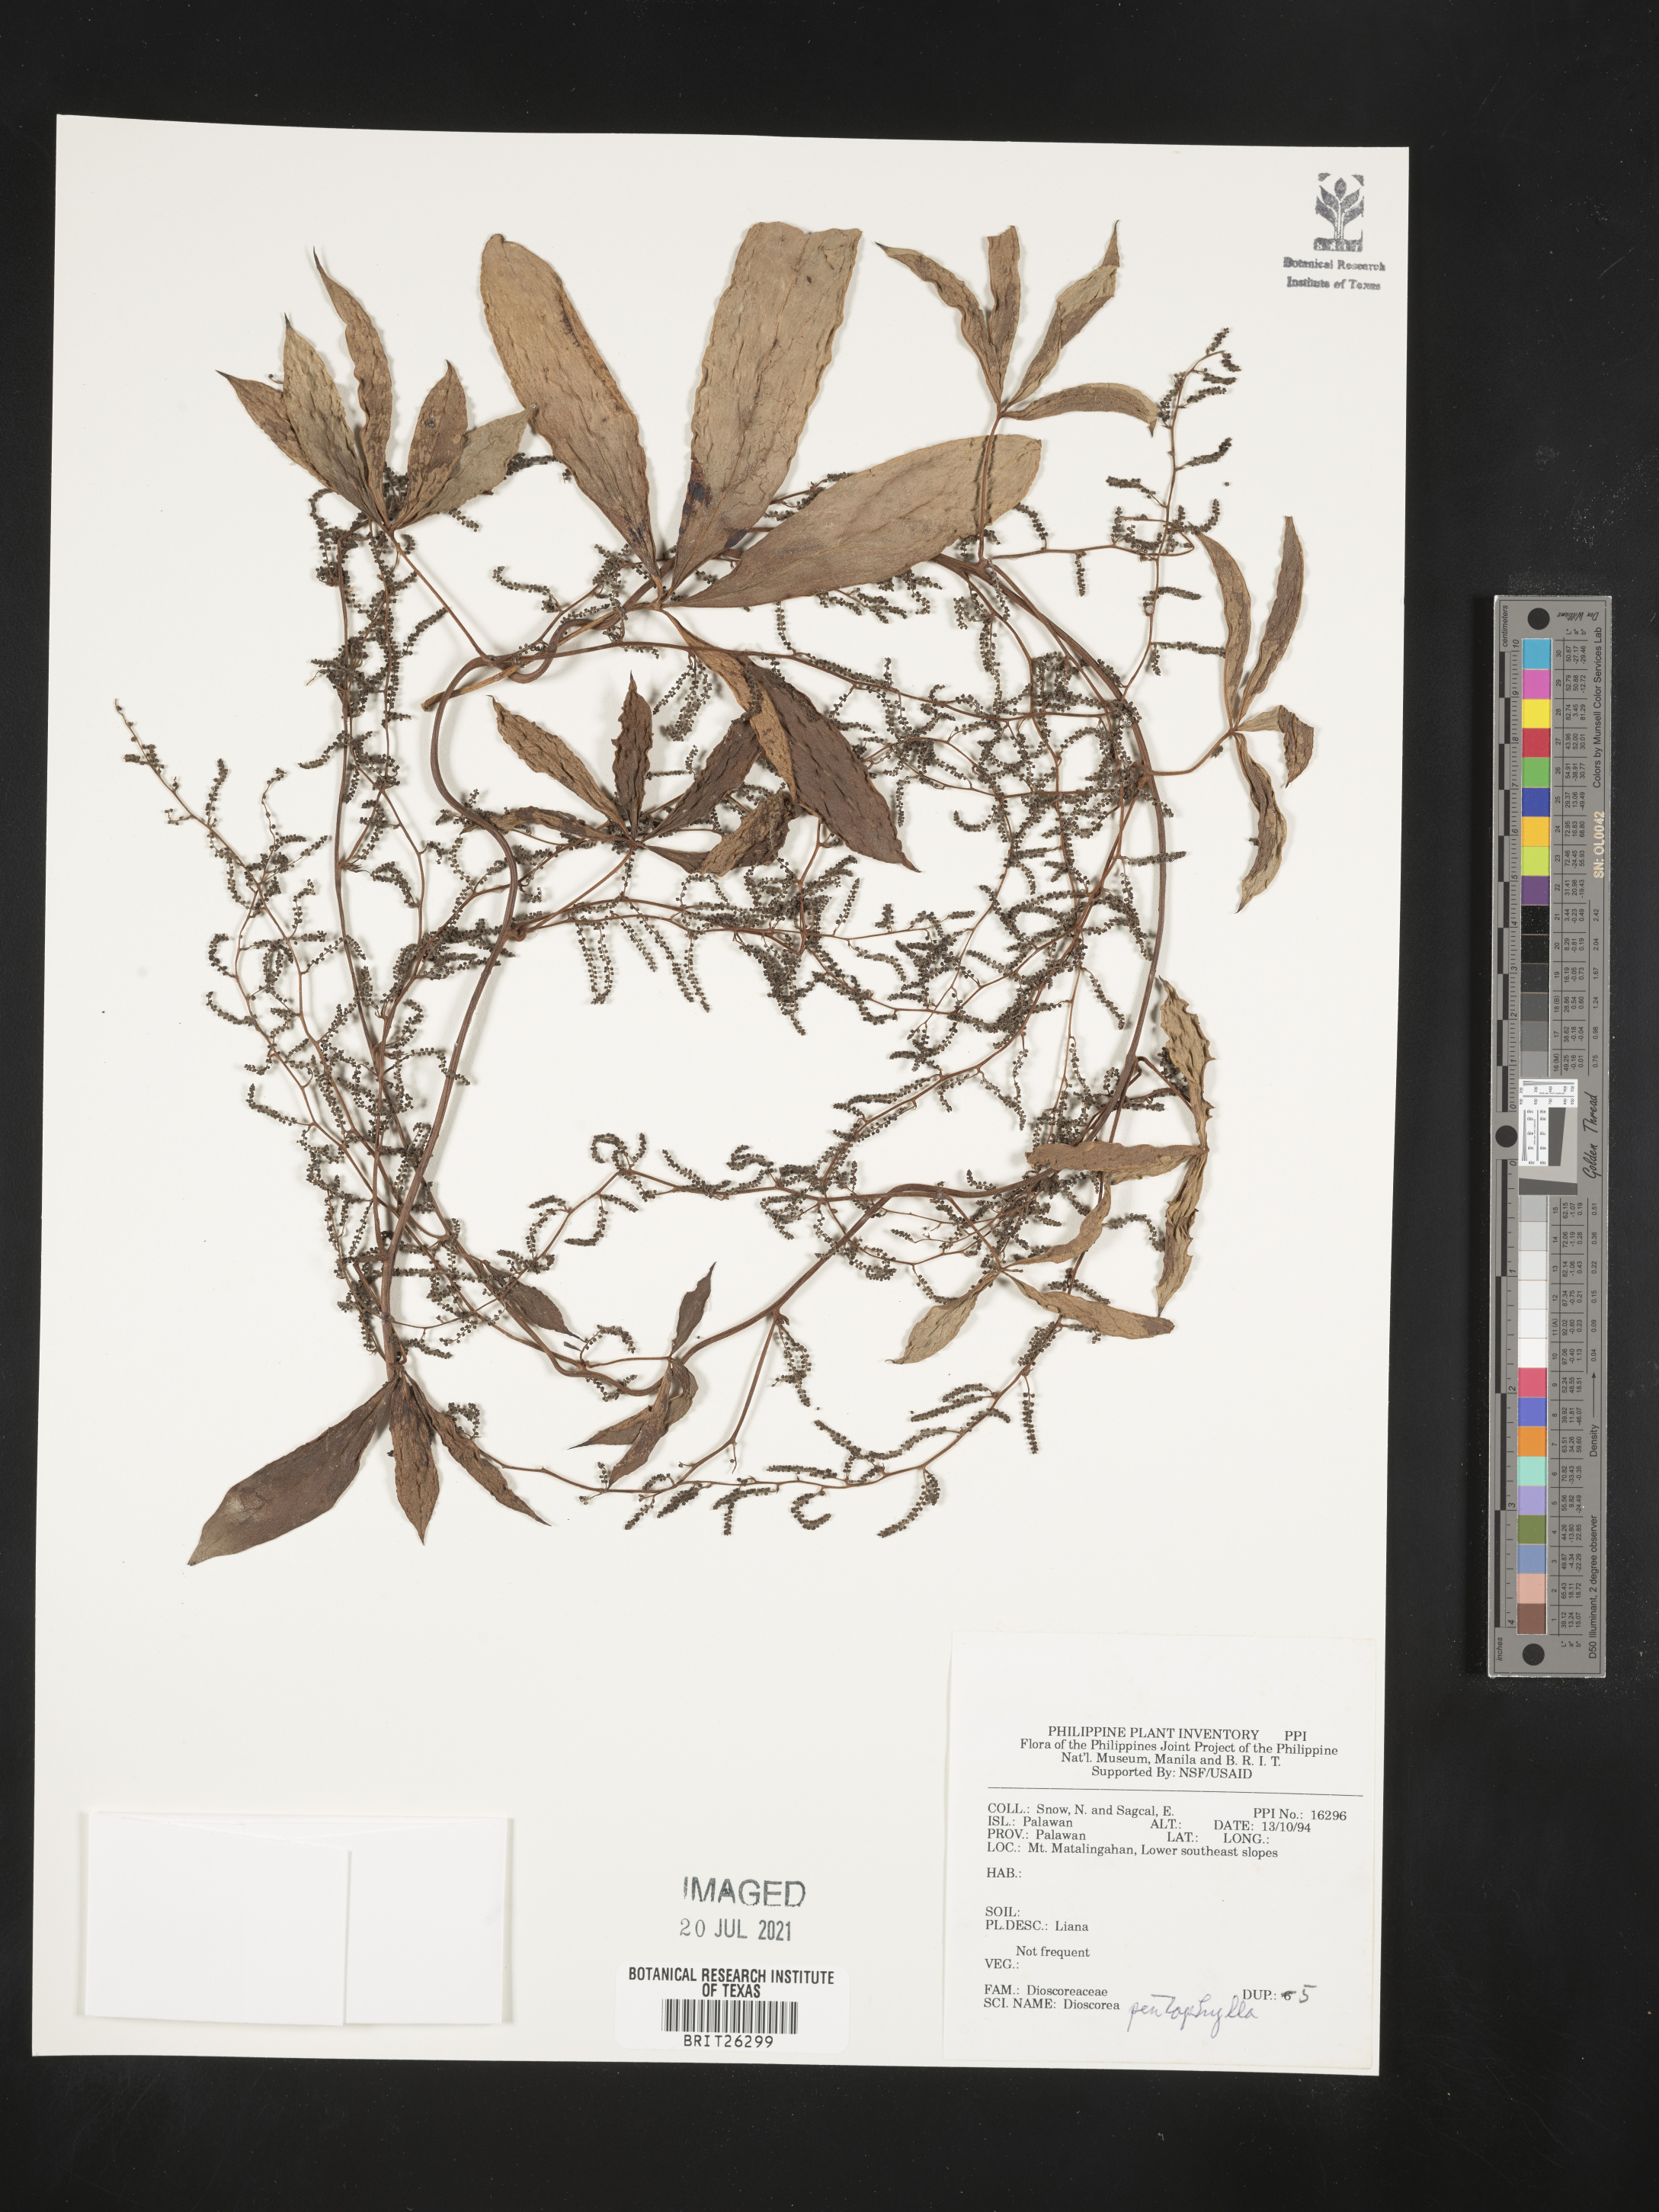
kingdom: Plantae
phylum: Tracheophyta
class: Liliopsida
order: Dioscoreales
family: Dioscoreaceae
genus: Dioscorea
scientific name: Dioscorea pentaphylla
